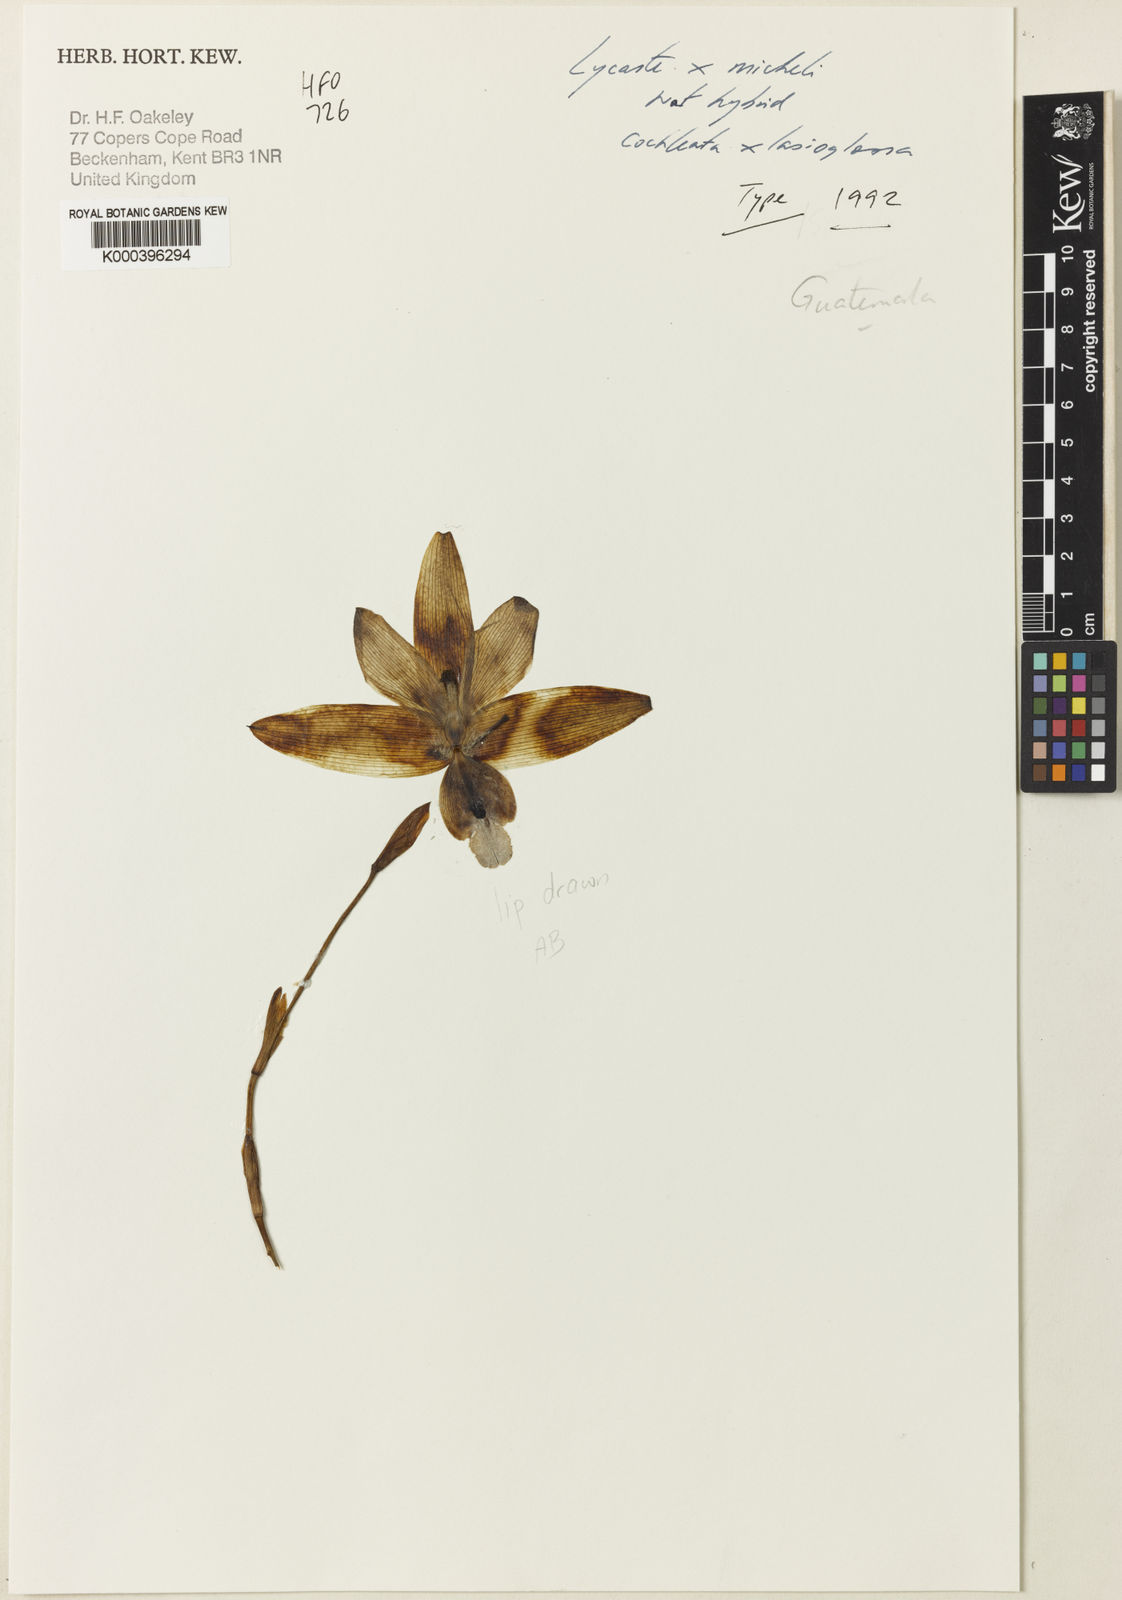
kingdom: Plantae
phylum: Tracheophyta
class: Liliopsida
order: Asparagales
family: Orchidaceae
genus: Lycaste
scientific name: Lycaste michelii
